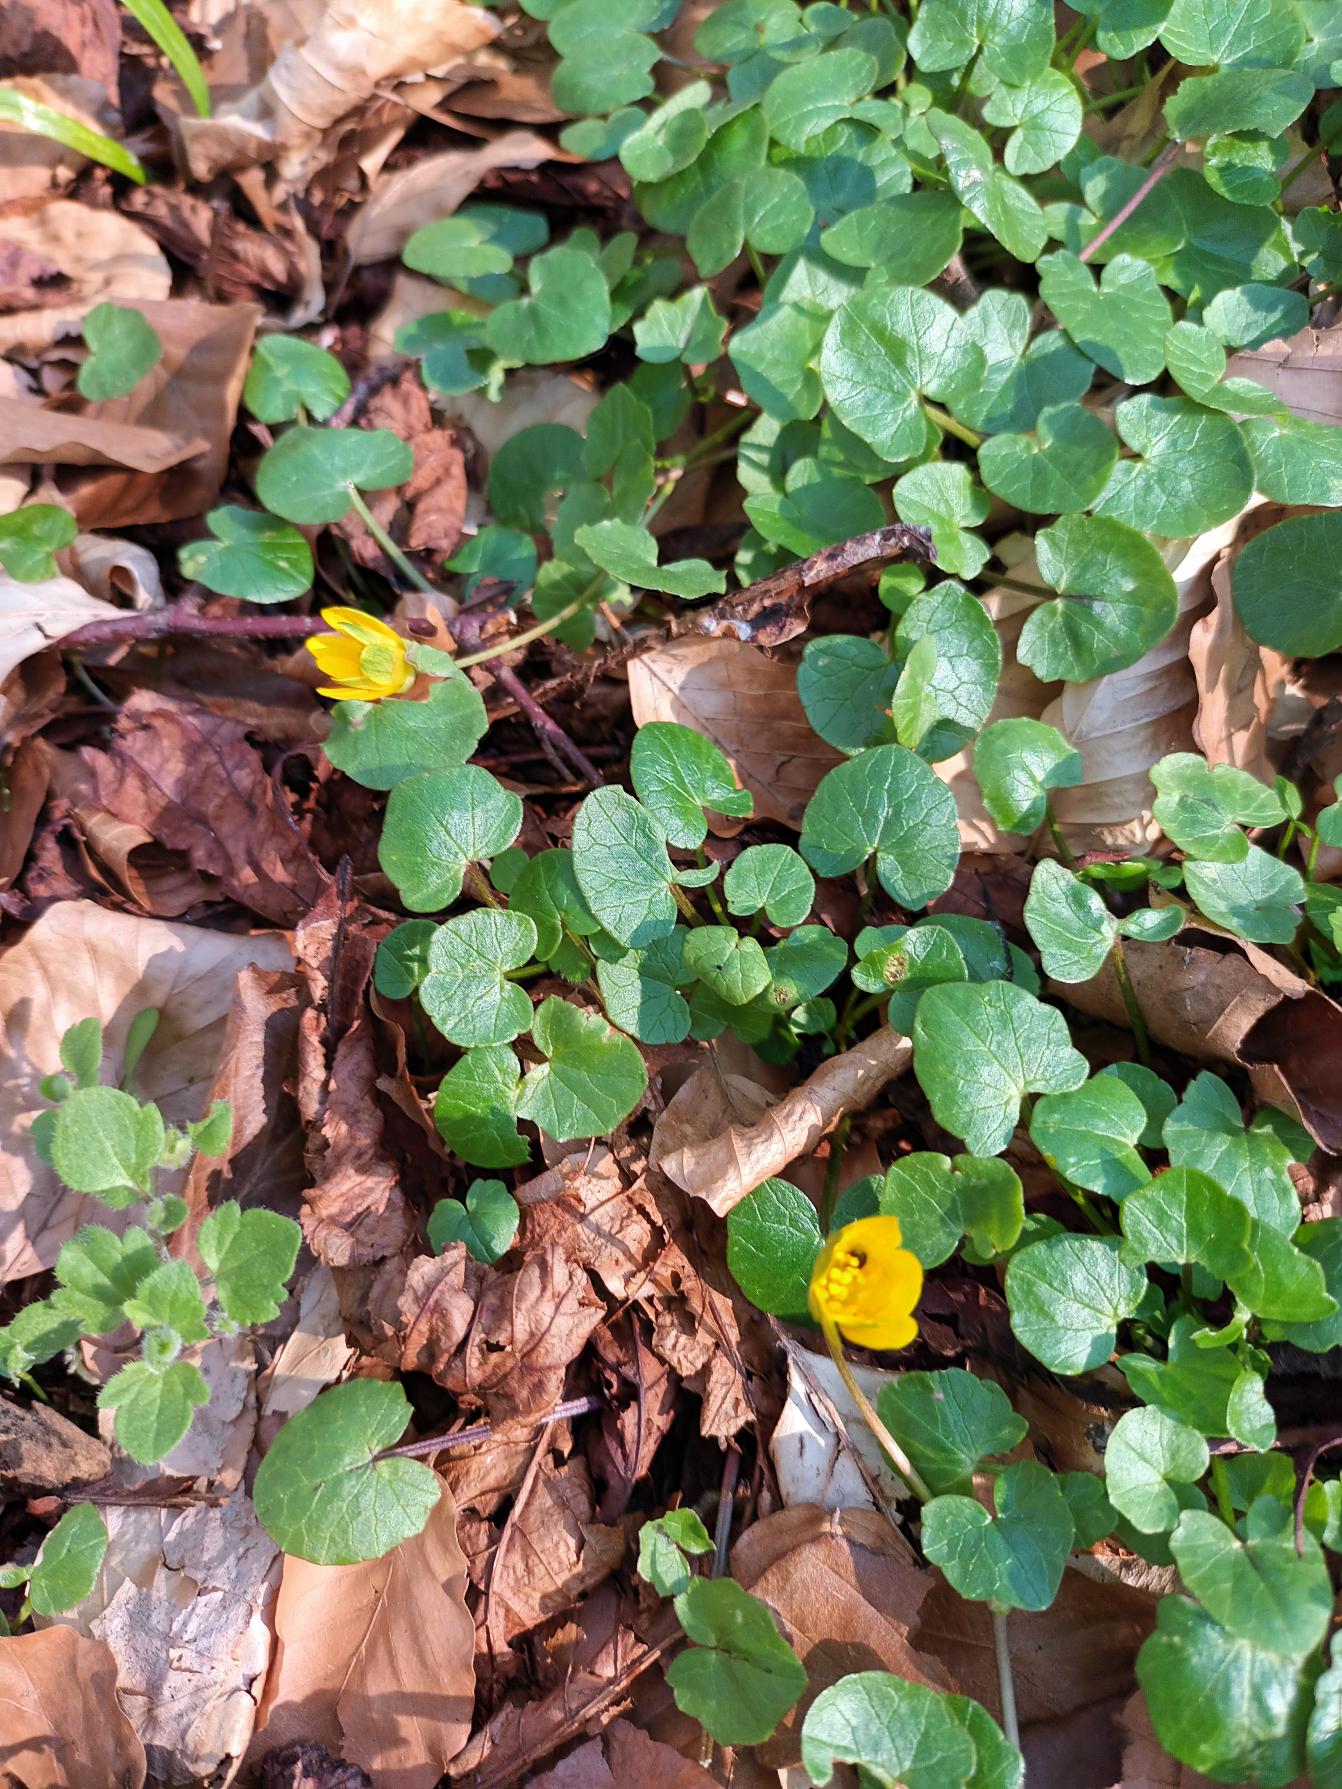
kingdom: Plantae
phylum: Tracheophyta
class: Magnoliopsida
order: Ranunculales
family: Ranunculaceae
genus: Ficaria
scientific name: Ficaria verna
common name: Vorterod
